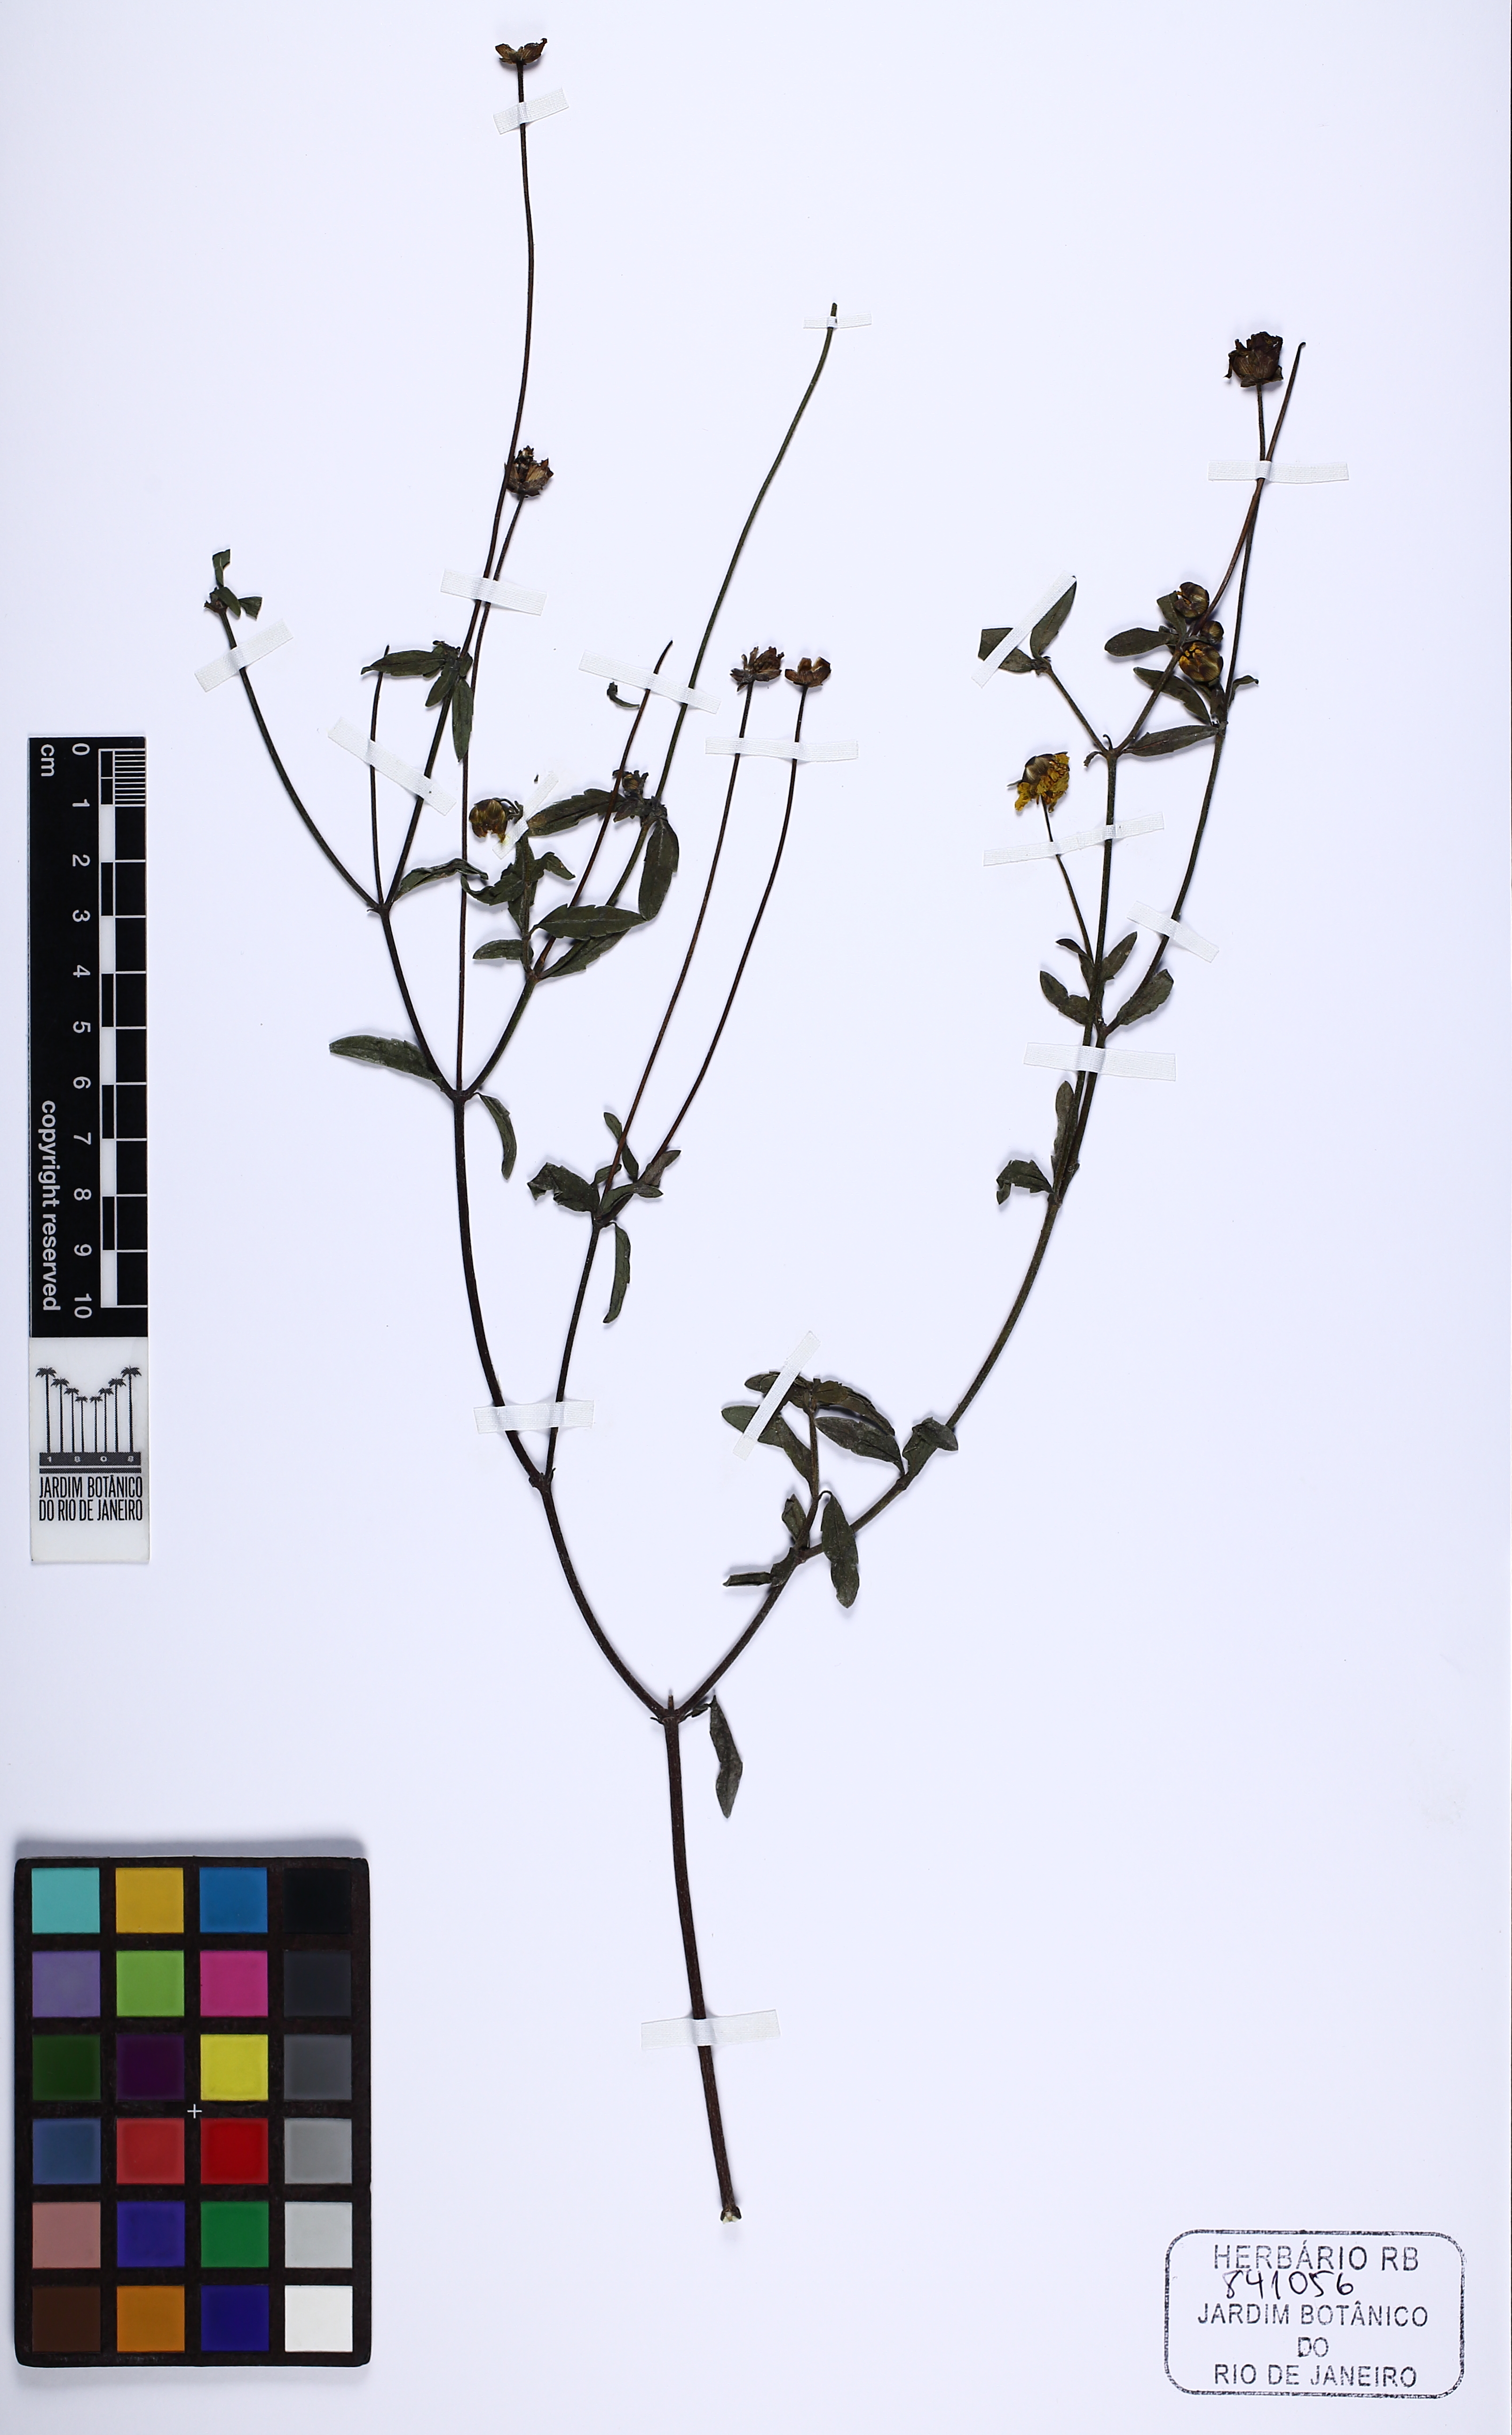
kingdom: Plantae
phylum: Tracheophyta
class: Magnoliopsida
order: Asterales
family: Asteraceae
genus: Calea
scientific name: Calea pilosa
